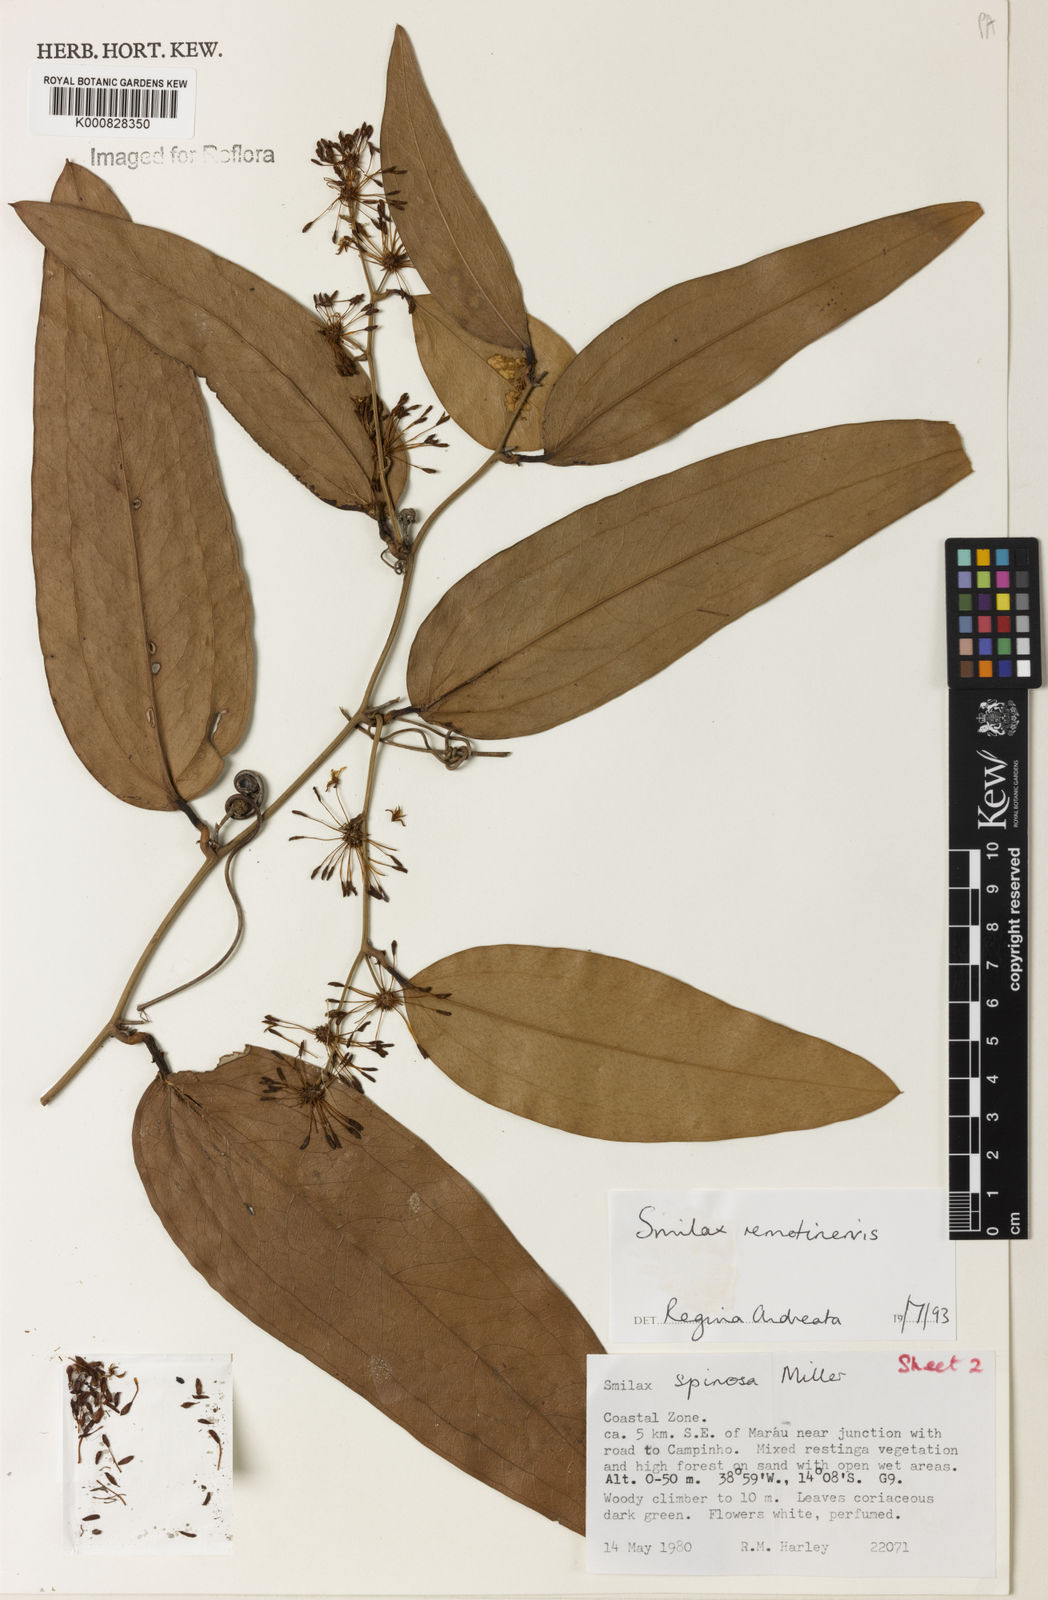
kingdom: Plantae
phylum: Tracheophyta
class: Liliopsida
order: Liliales
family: Smilacaceae
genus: Smilax
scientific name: Smilax remotinervis
